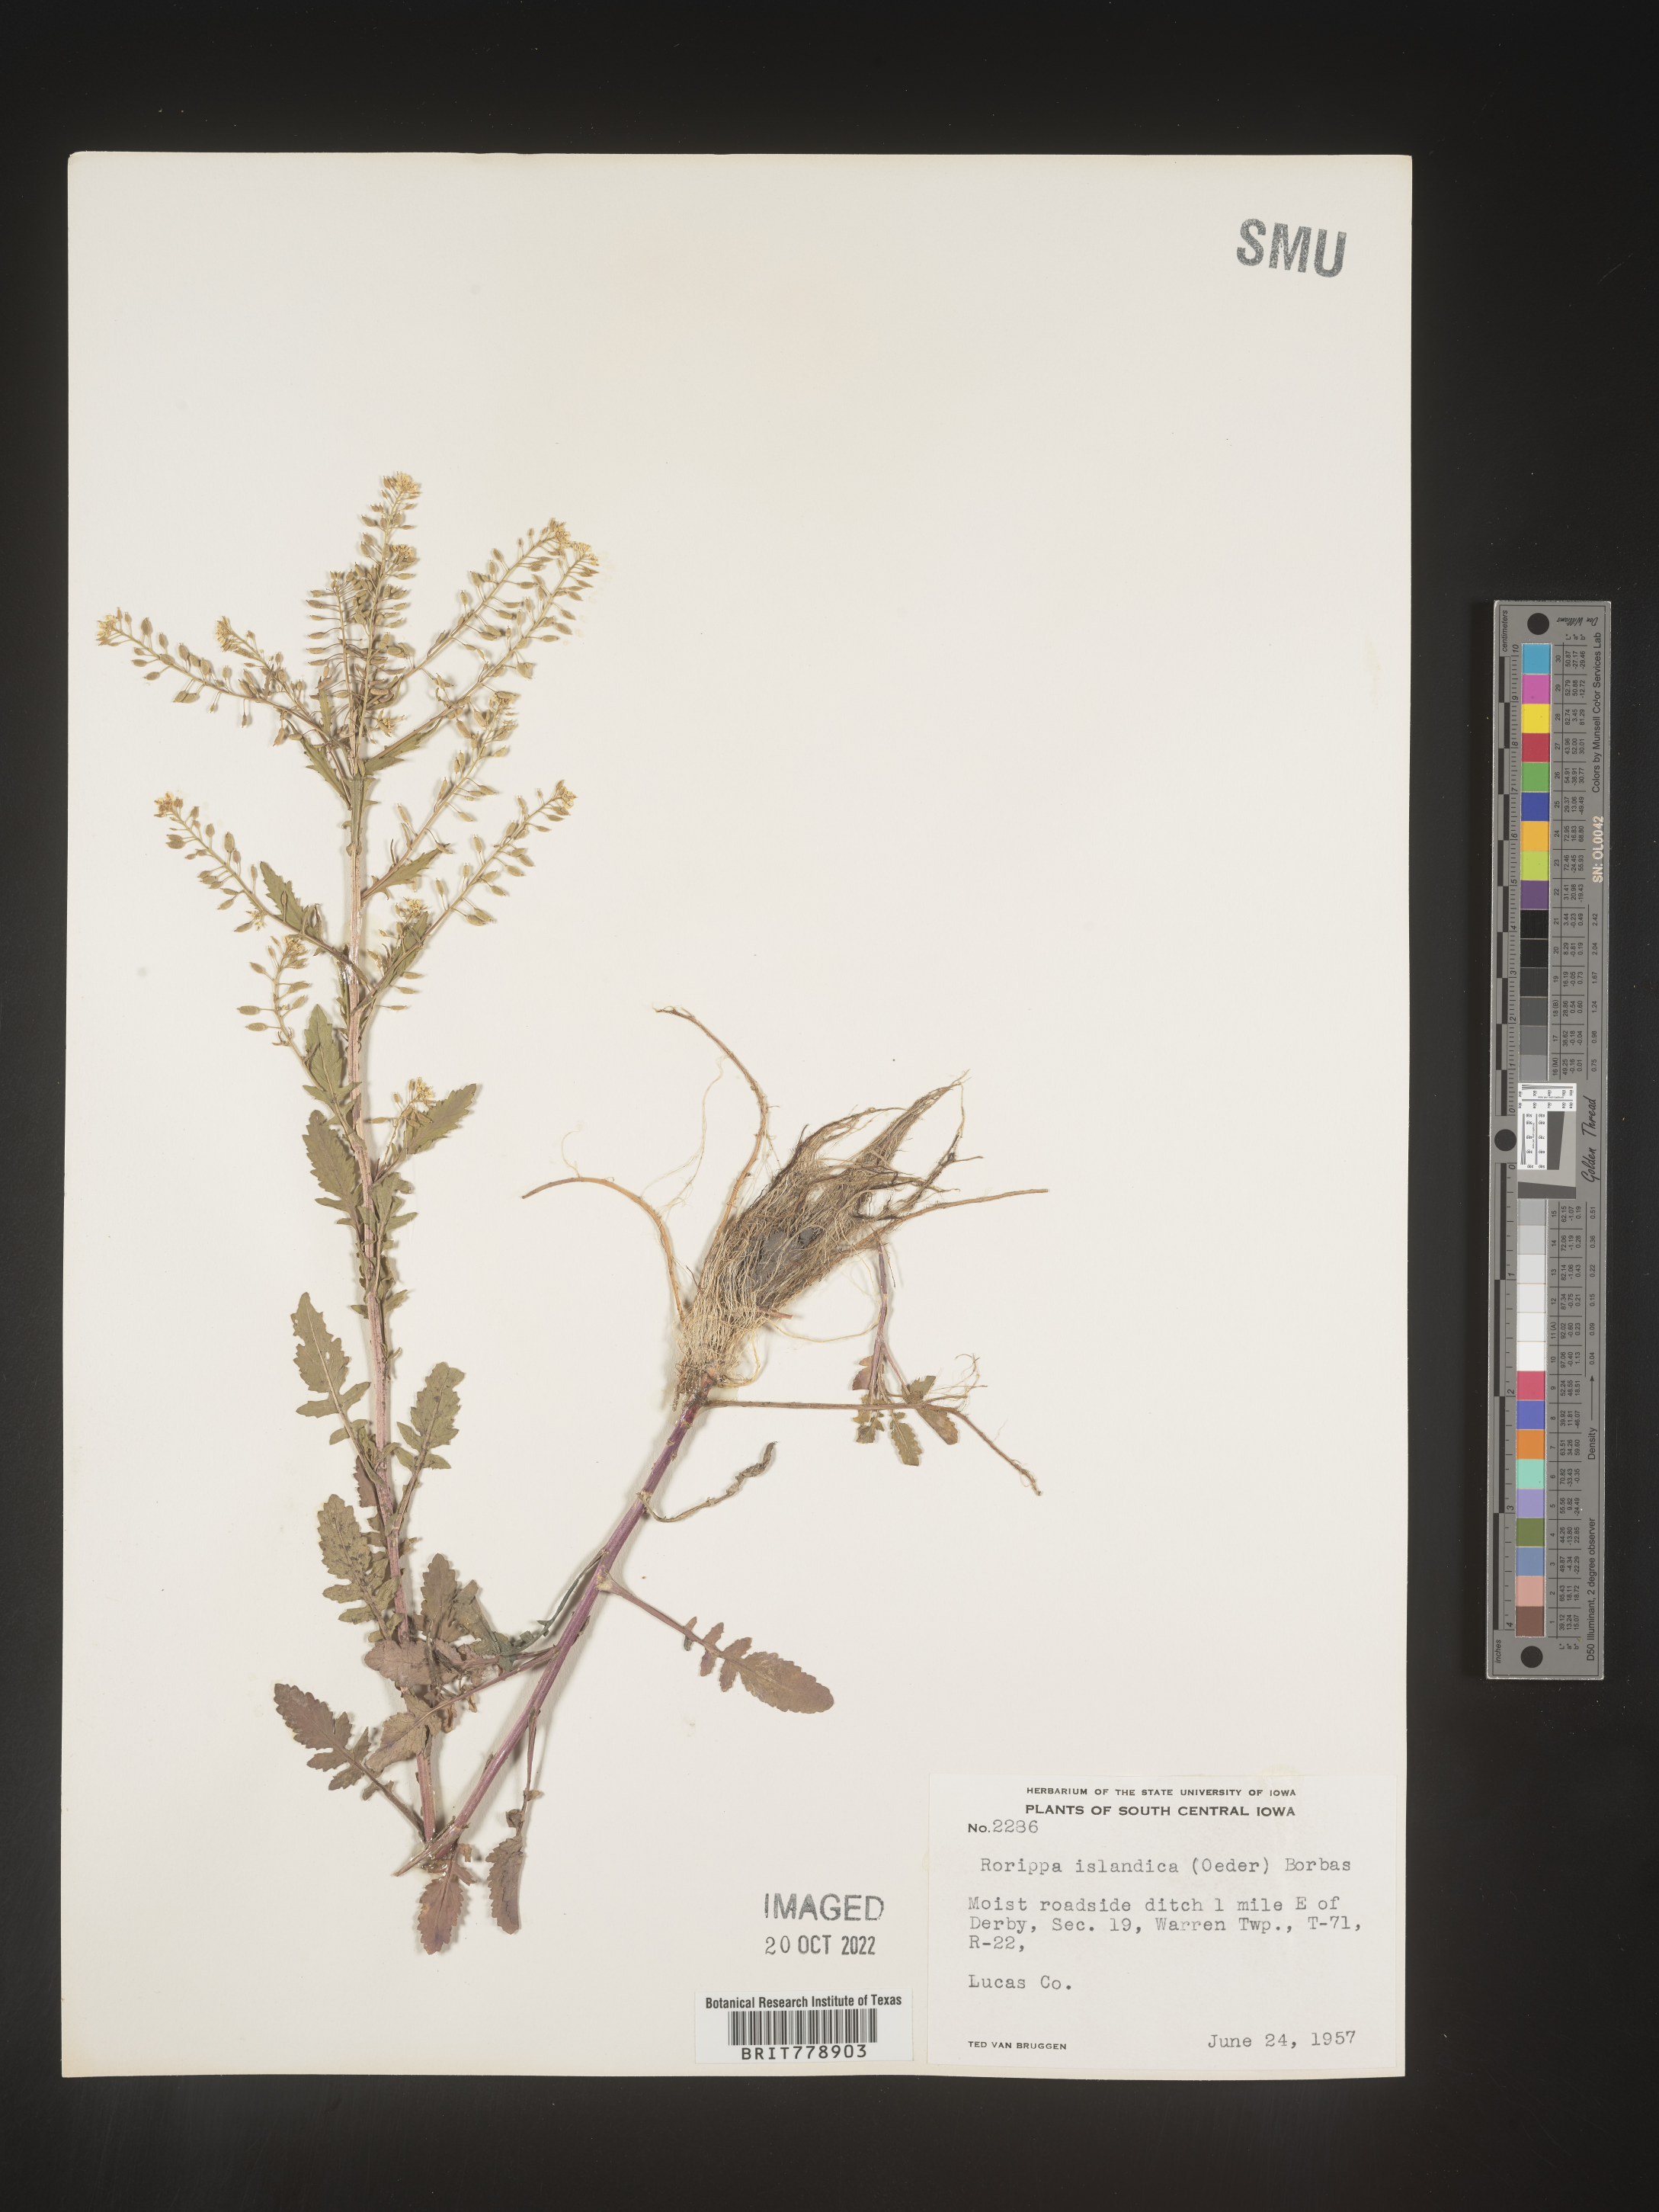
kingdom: Plantae
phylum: Tracheophyta
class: Magnoliopsida
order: Brassicales
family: Brassicaceae
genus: Rorippa
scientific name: Rorippa palustris
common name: Marsh yellow-cress
